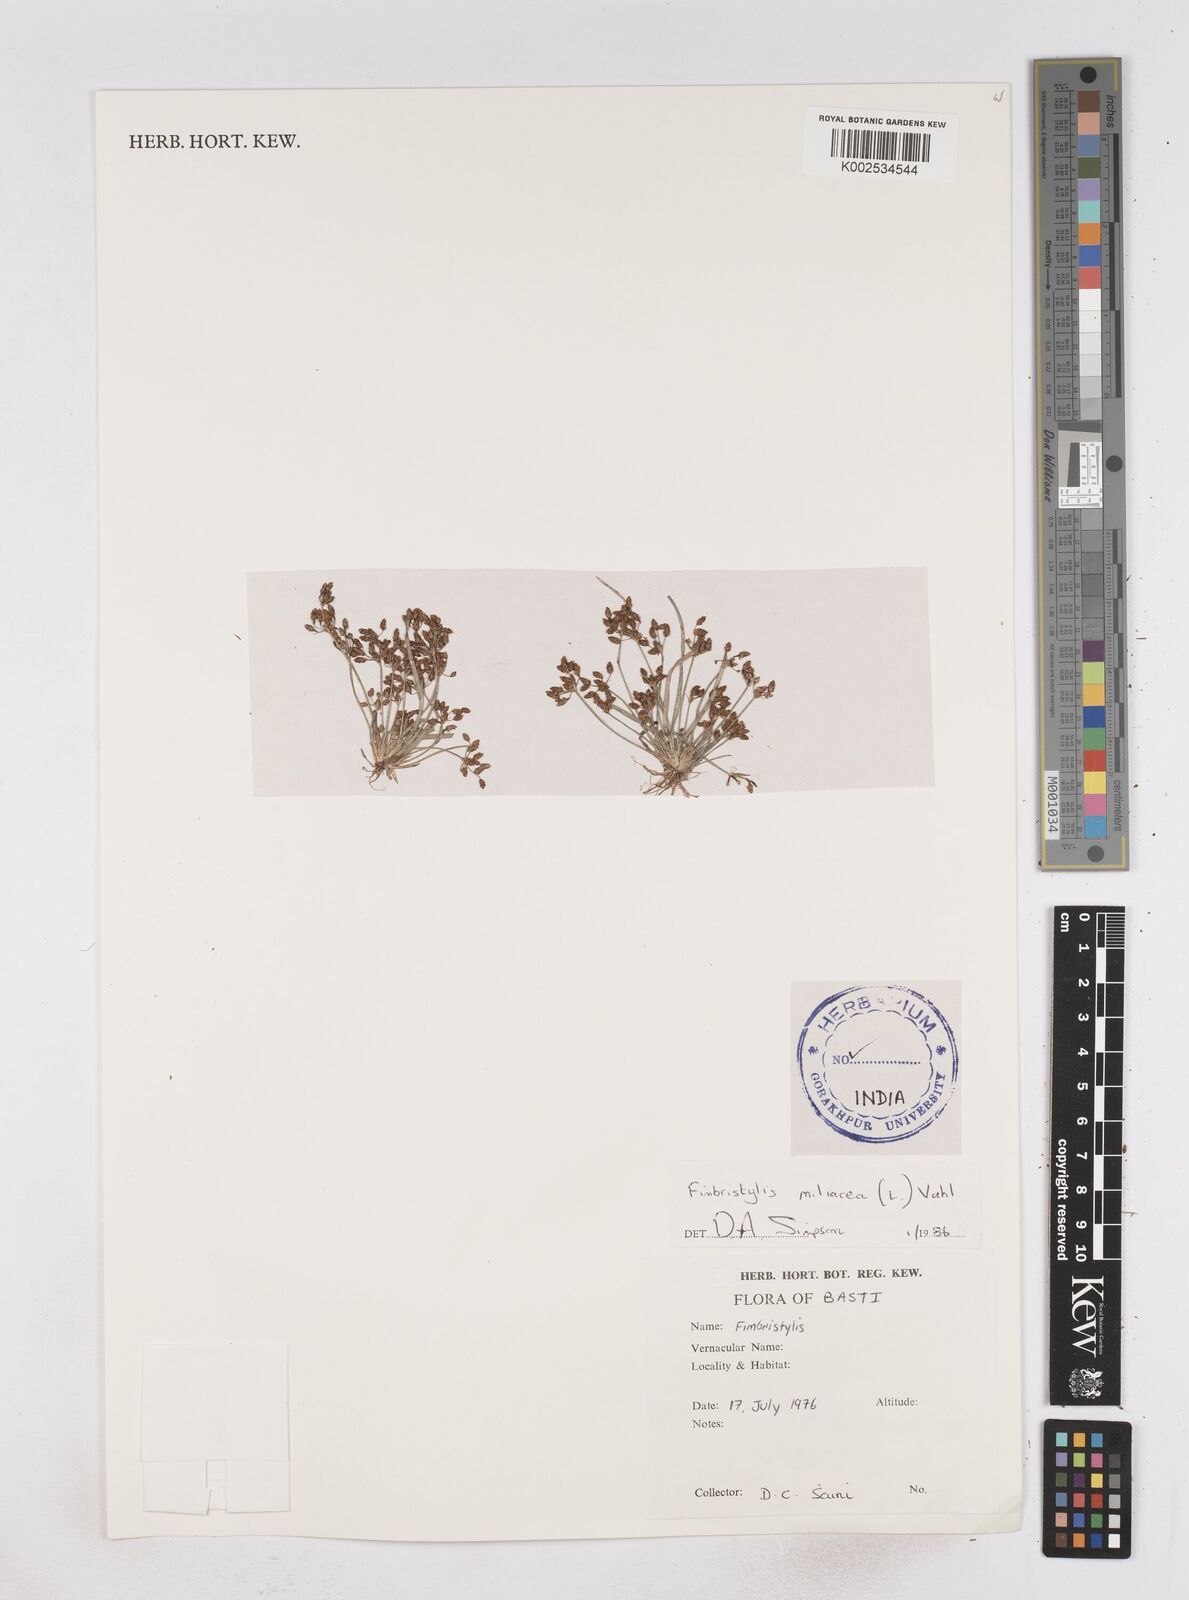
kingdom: Plantae
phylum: Tracheophyta
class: Liliopsida
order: Poales
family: Cyperaceae
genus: Fimbristylis
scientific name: Fimbristylis quinquangularis
